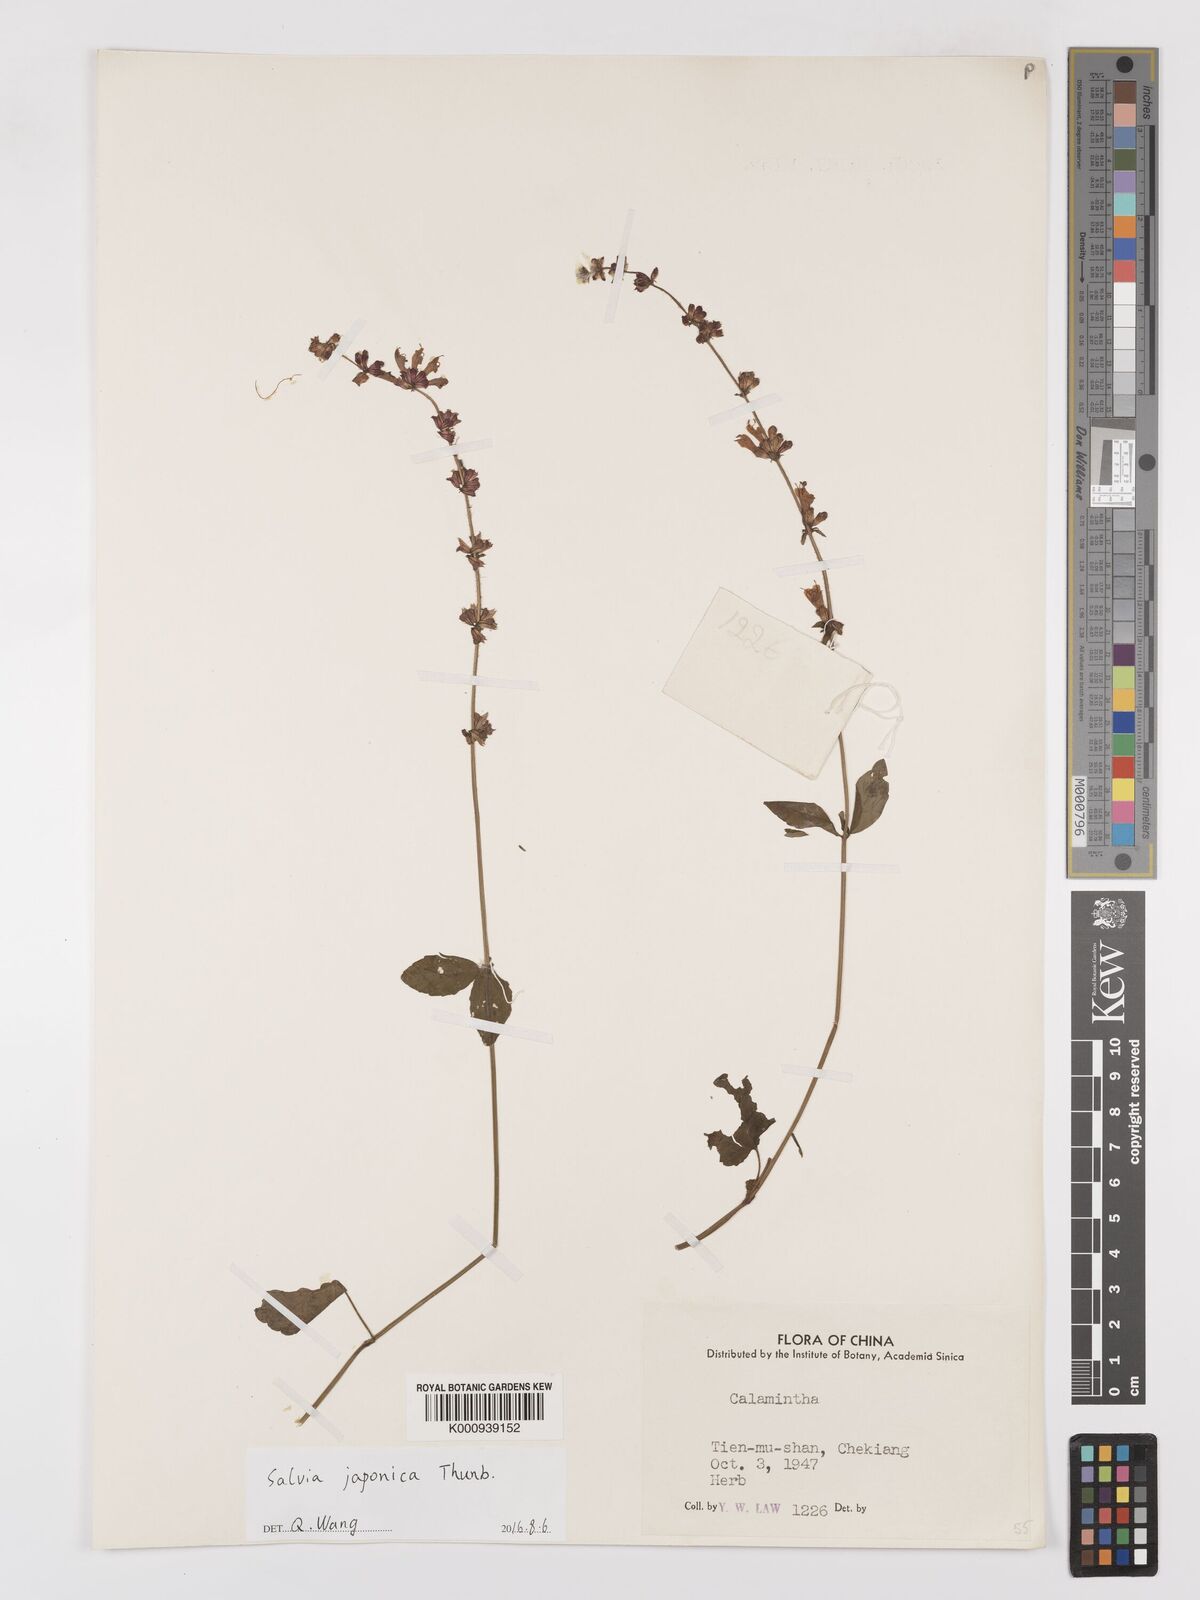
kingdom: Plantae
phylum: Tracheophyta
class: Magnoliopsida
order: Lamiales
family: Lamiaceae
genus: Salvia
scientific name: Salvia japonica
